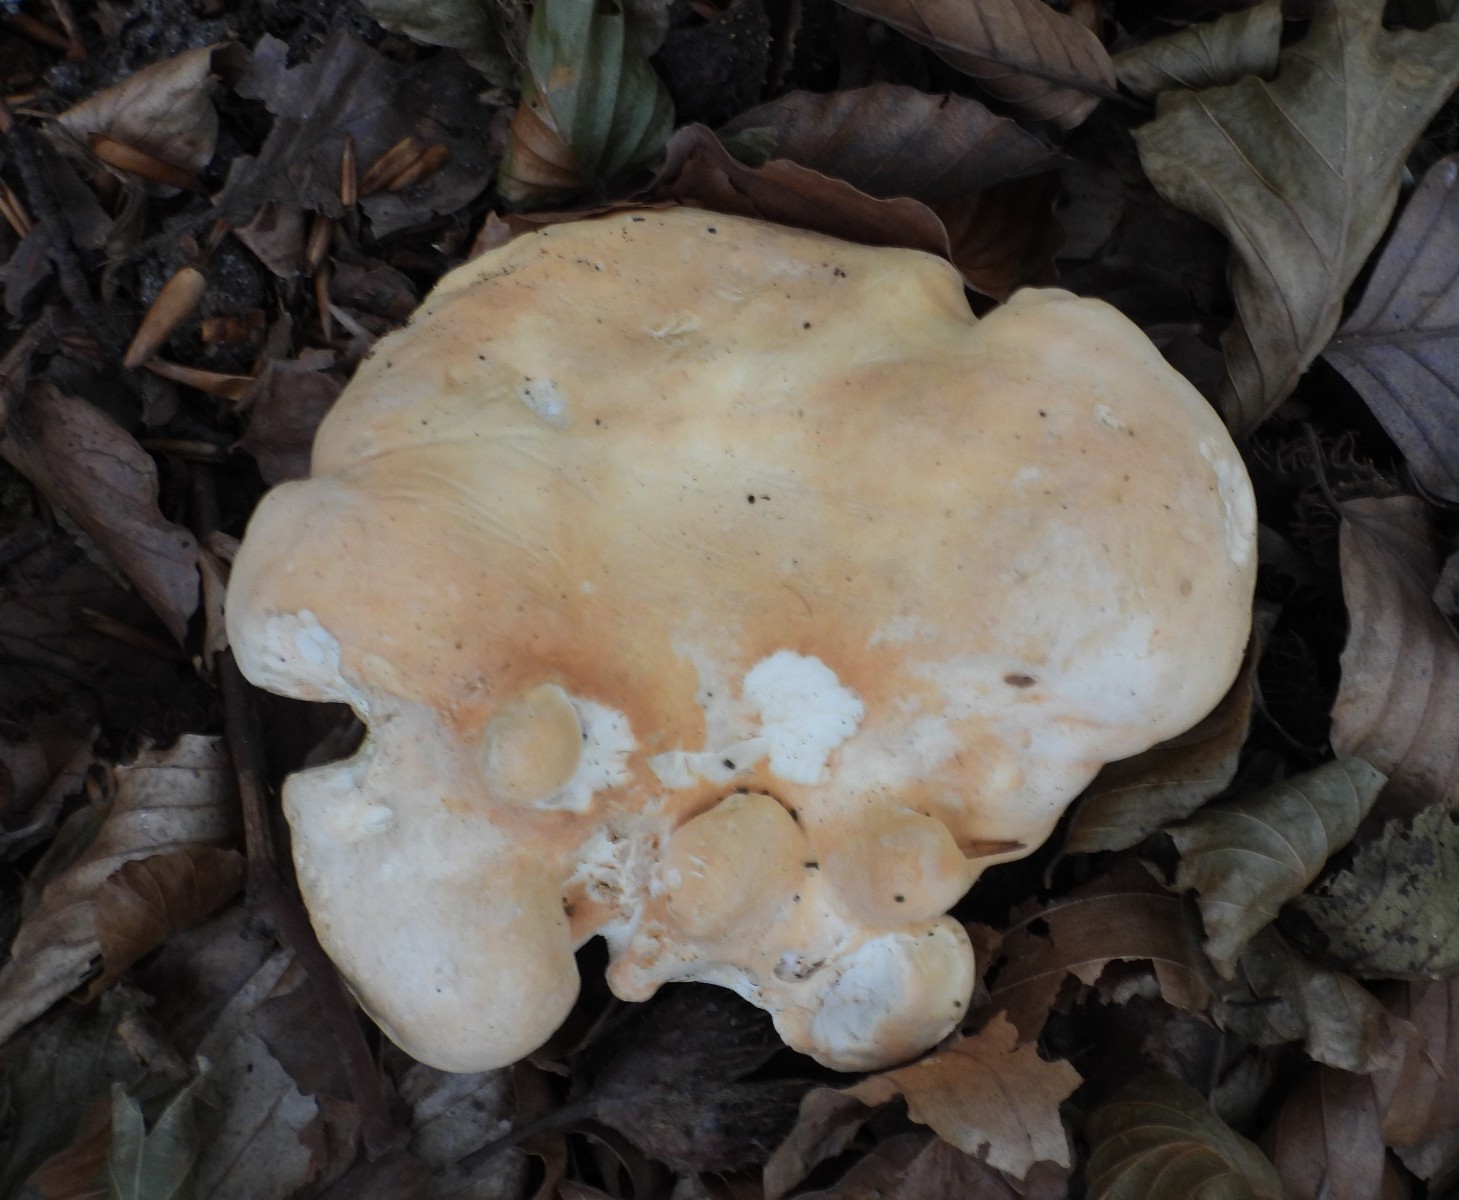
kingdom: Fungi
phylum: Basidiomycota
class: Agaricomycetes
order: Cantharellales
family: Hydnaceae
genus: Hydnum
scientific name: Hydnum repandum
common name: almindelig pigsvamp
